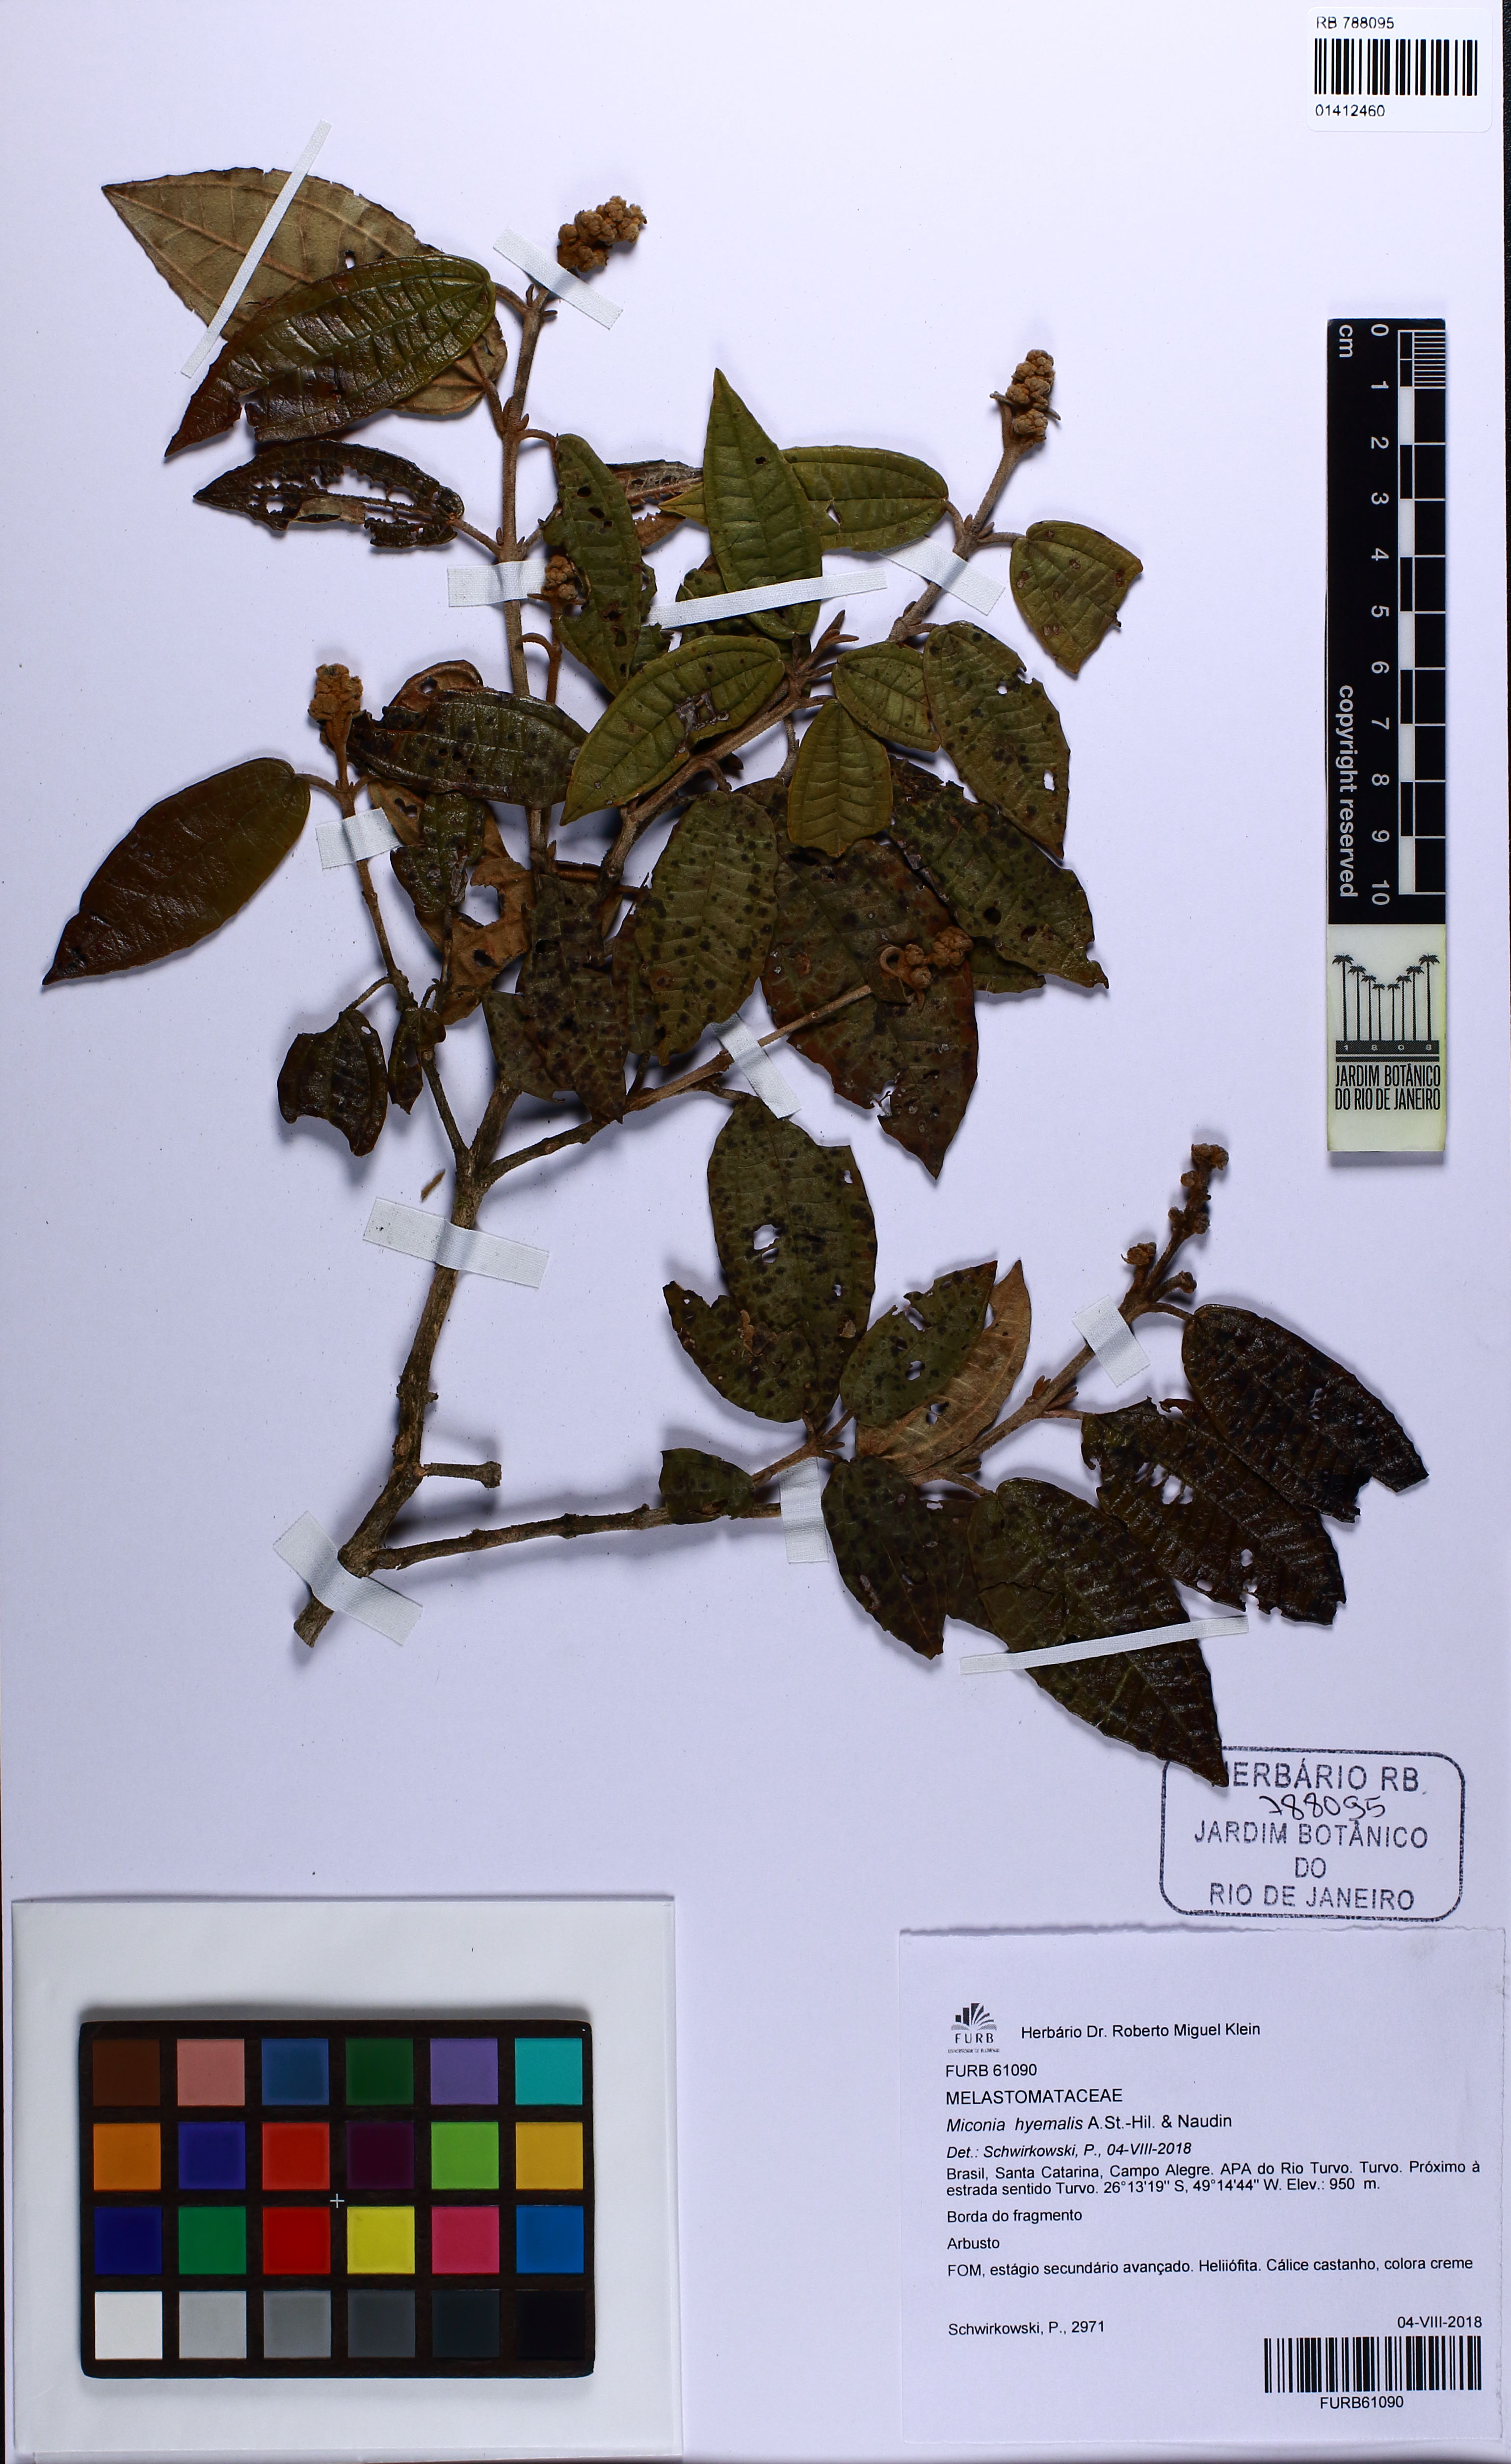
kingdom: Plantae
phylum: Tracheophyta
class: Magnoliopsida
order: Myrtales
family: Melastomataceae
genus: Miconia
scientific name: Miconia hyemalis
